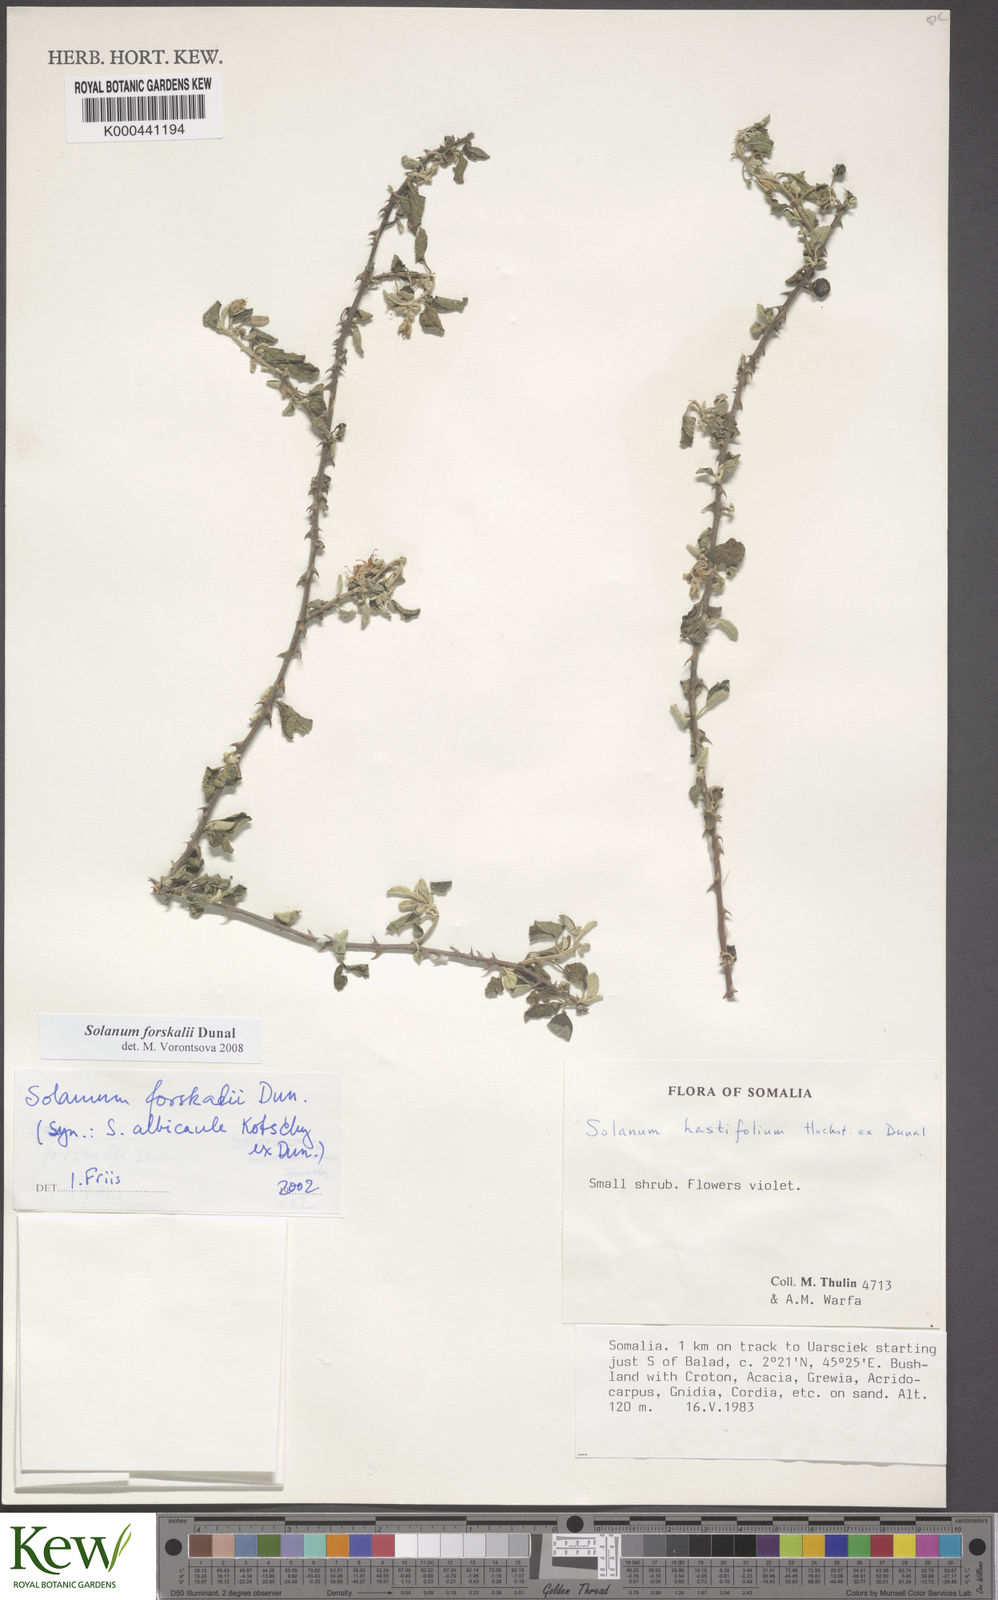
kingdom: Plantae
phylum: Tracheophyta
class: Magnoliopsida
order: Solanales
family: Solanaceae
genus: Solanum
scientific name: Solanum
